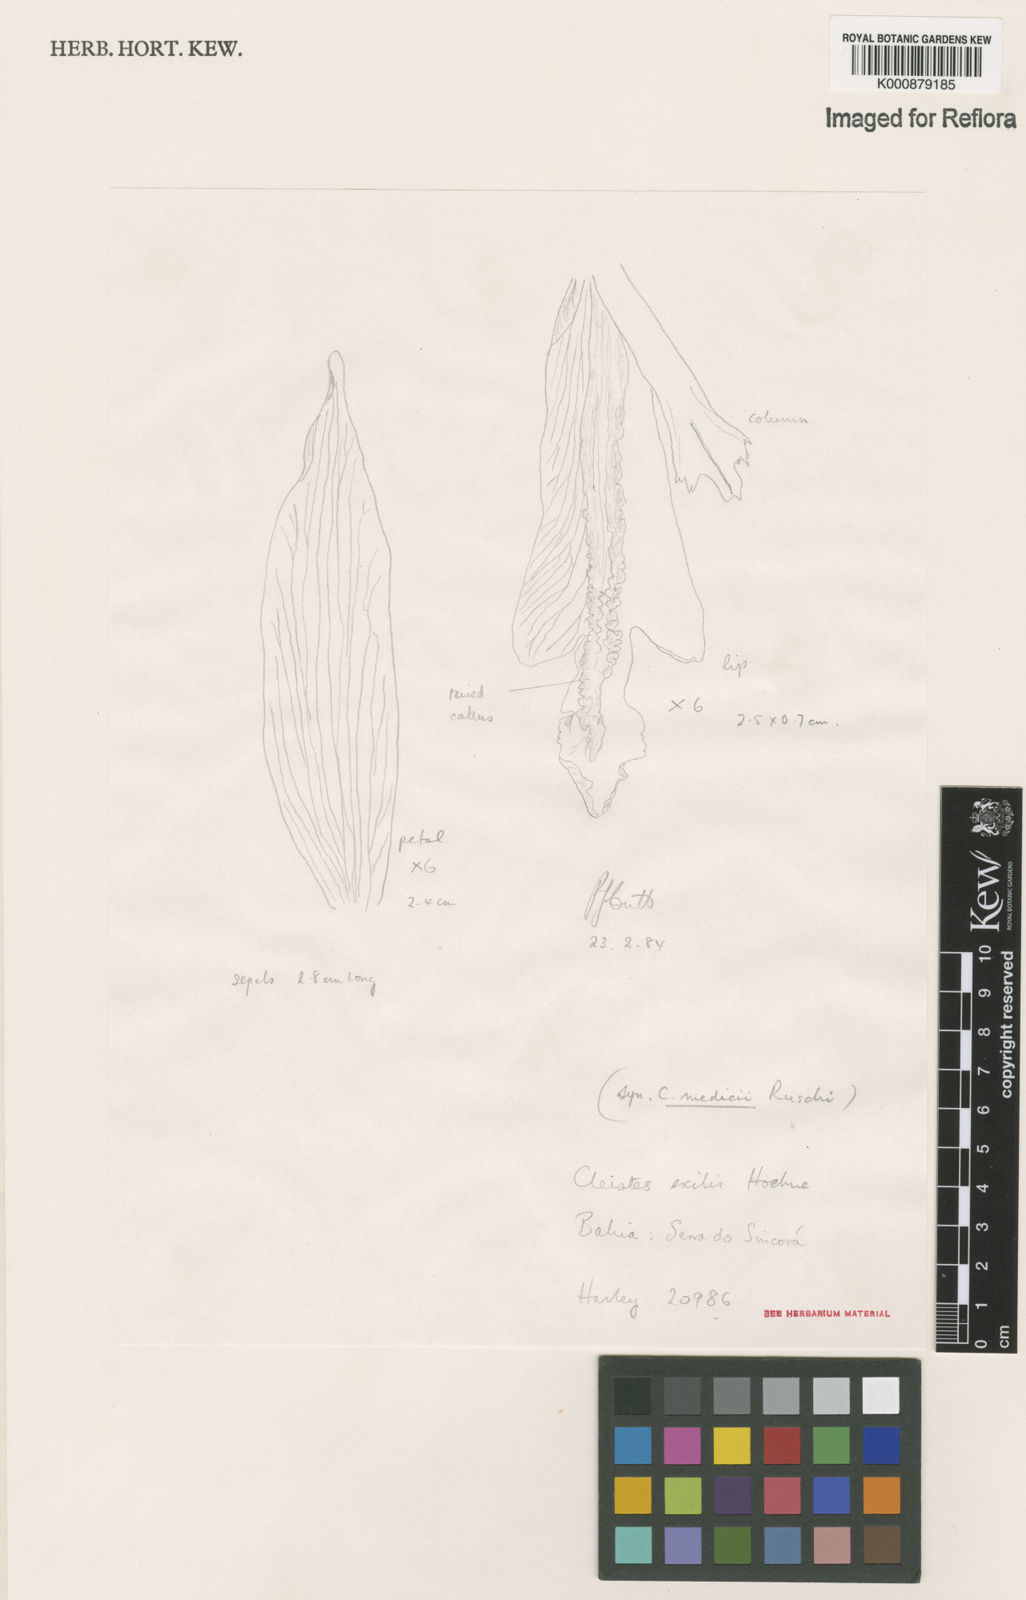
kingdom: Plantae
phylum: Tracheophyta
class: Liliopsida
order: Asparagales
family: Orchidaceae
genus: Cleistes
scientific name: Cleistes exilis
